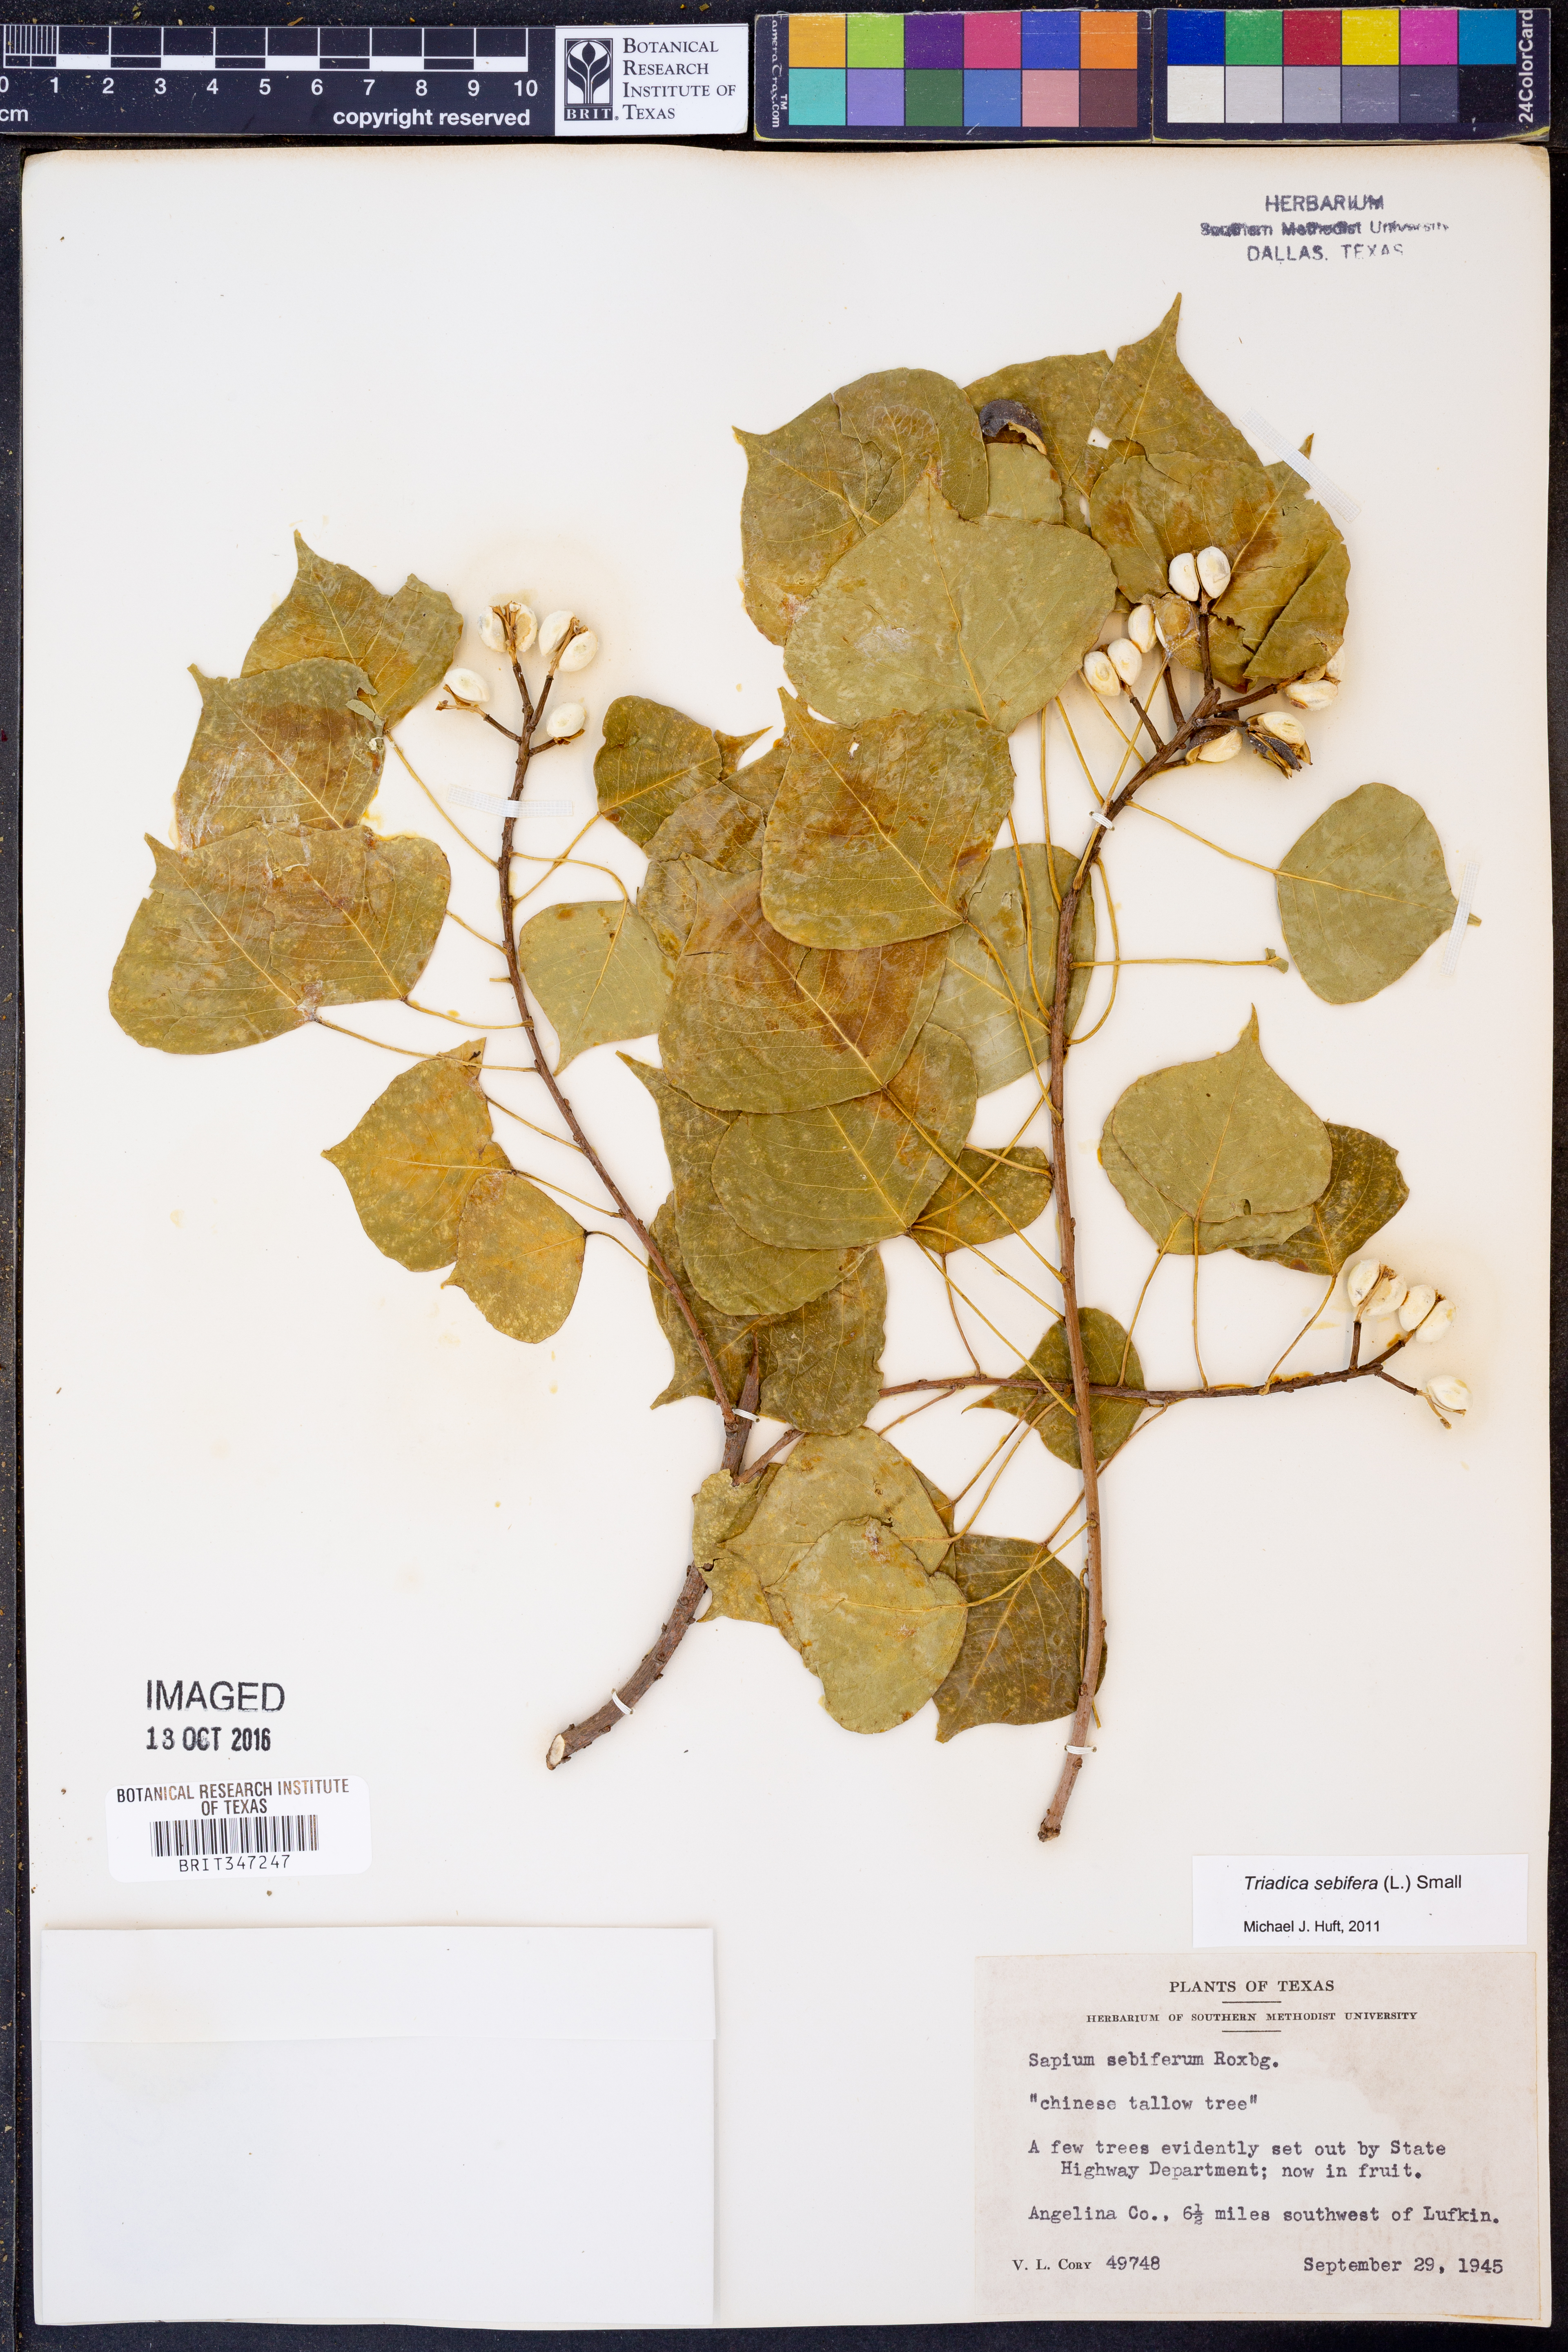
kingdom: Plantae
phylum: Tracheophyta
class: Magnoliopsida
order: Malpighiales
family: Euphorbiaceae
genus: Triadica
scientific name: Triadica sebifera
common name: Chinese tallow
